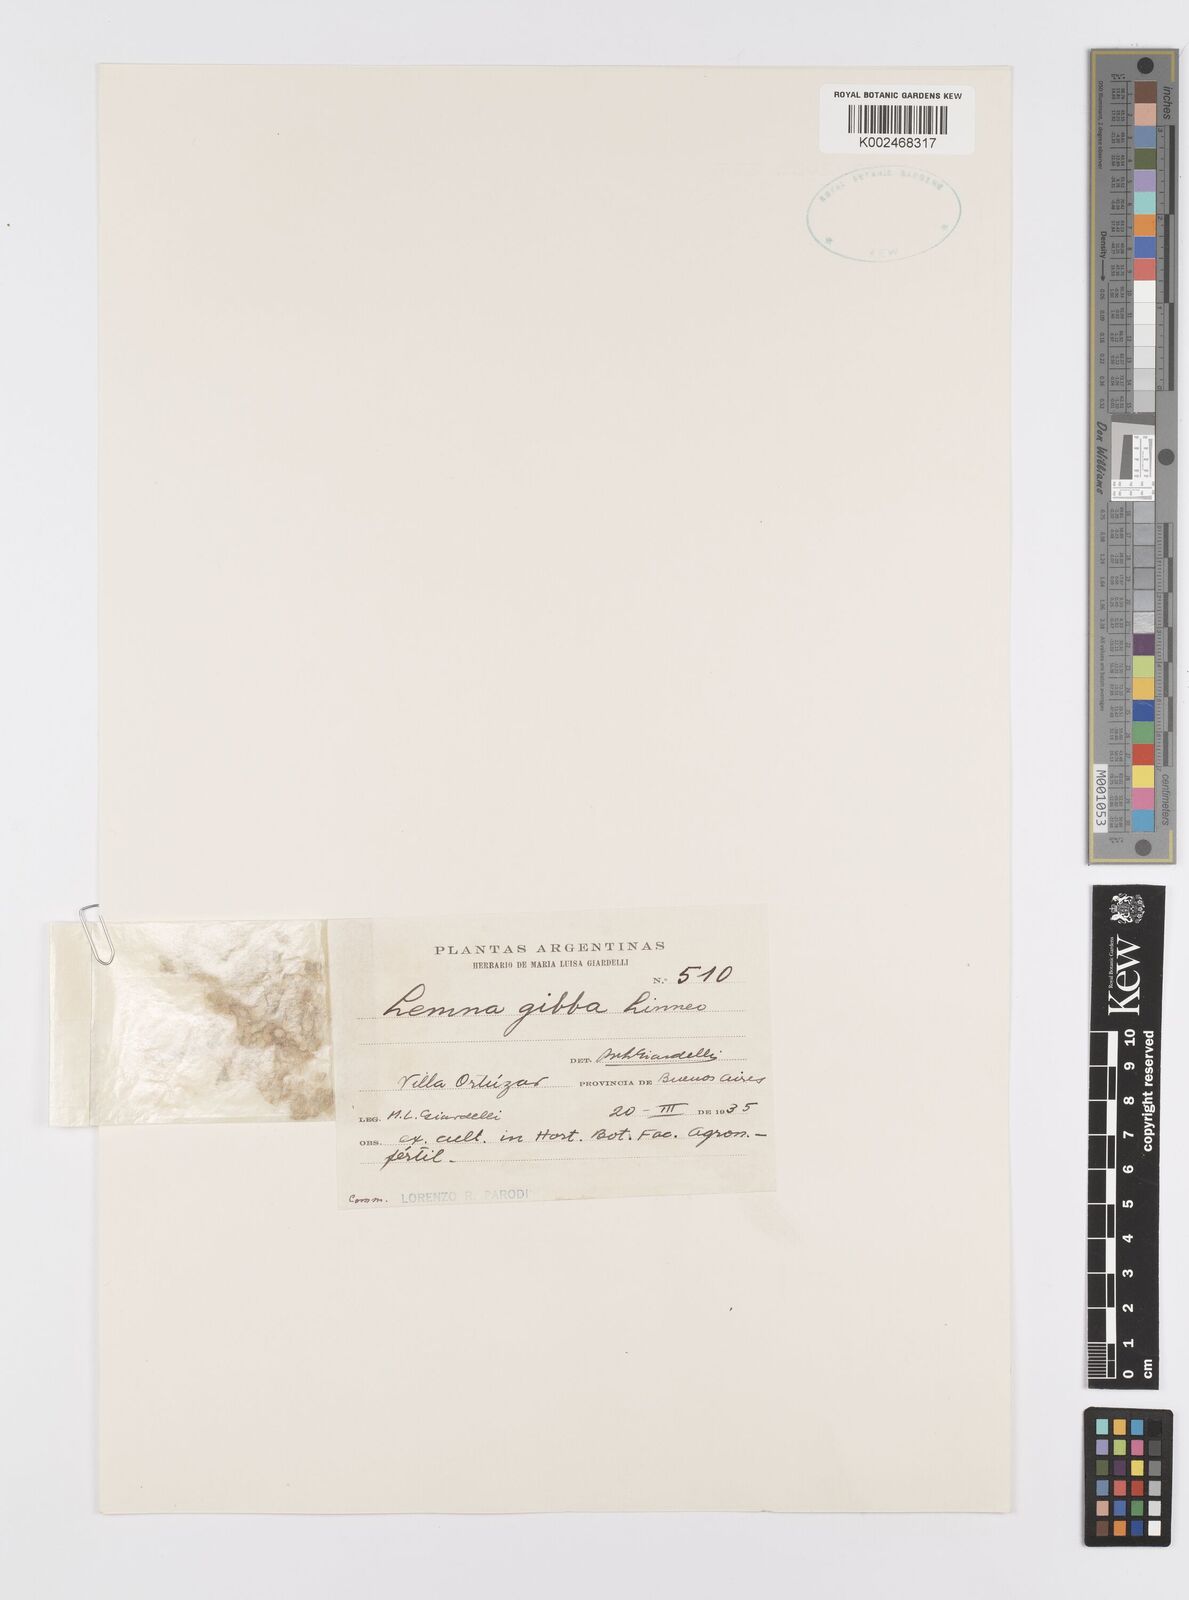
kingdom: Plantae
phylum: Tracheophyta
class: Liliopsida
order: Alismatales
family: Araceae
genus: Lemna
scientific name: Lemna gibba
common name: Fat duckweed
